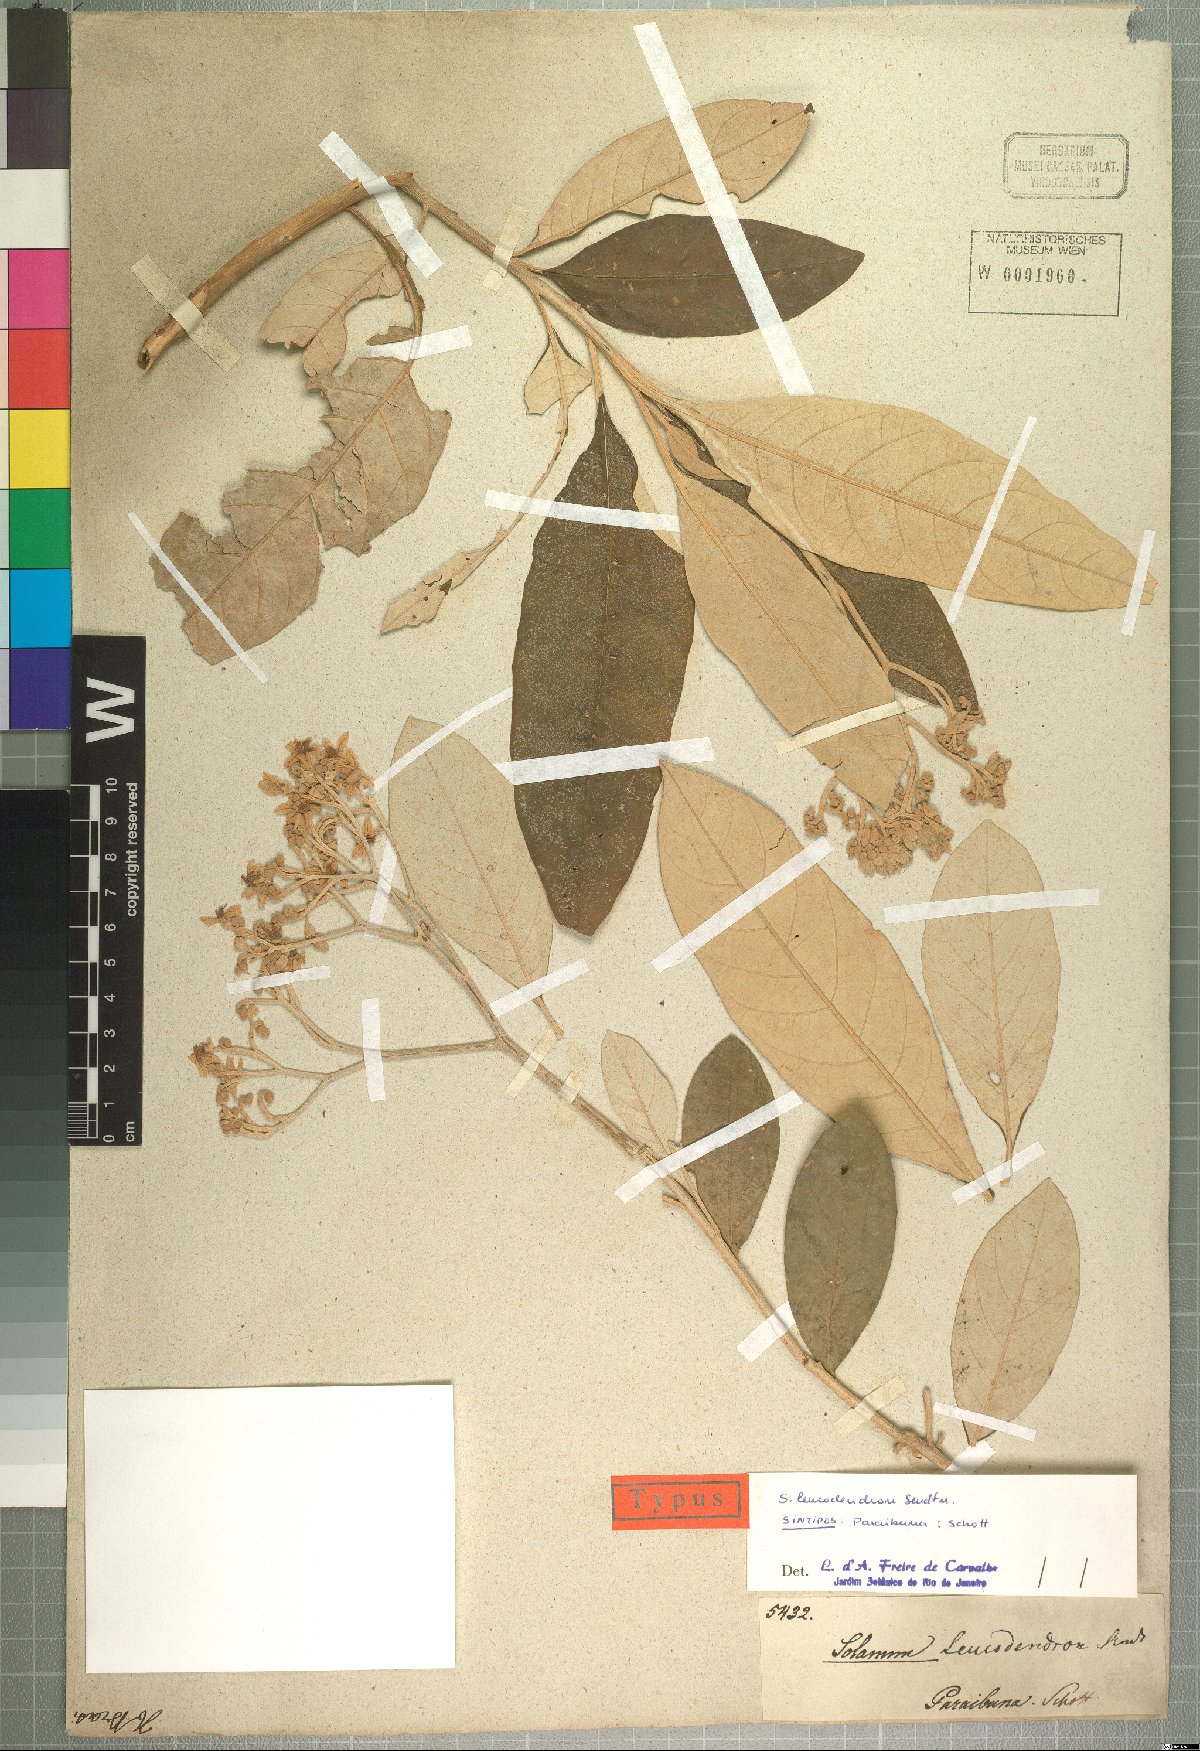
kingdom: Plantae
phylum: Tracheophyta
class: Magnoliopsida
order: Solanales
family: Solanaceae
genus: Solanum
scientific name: Solanum leucodendron
